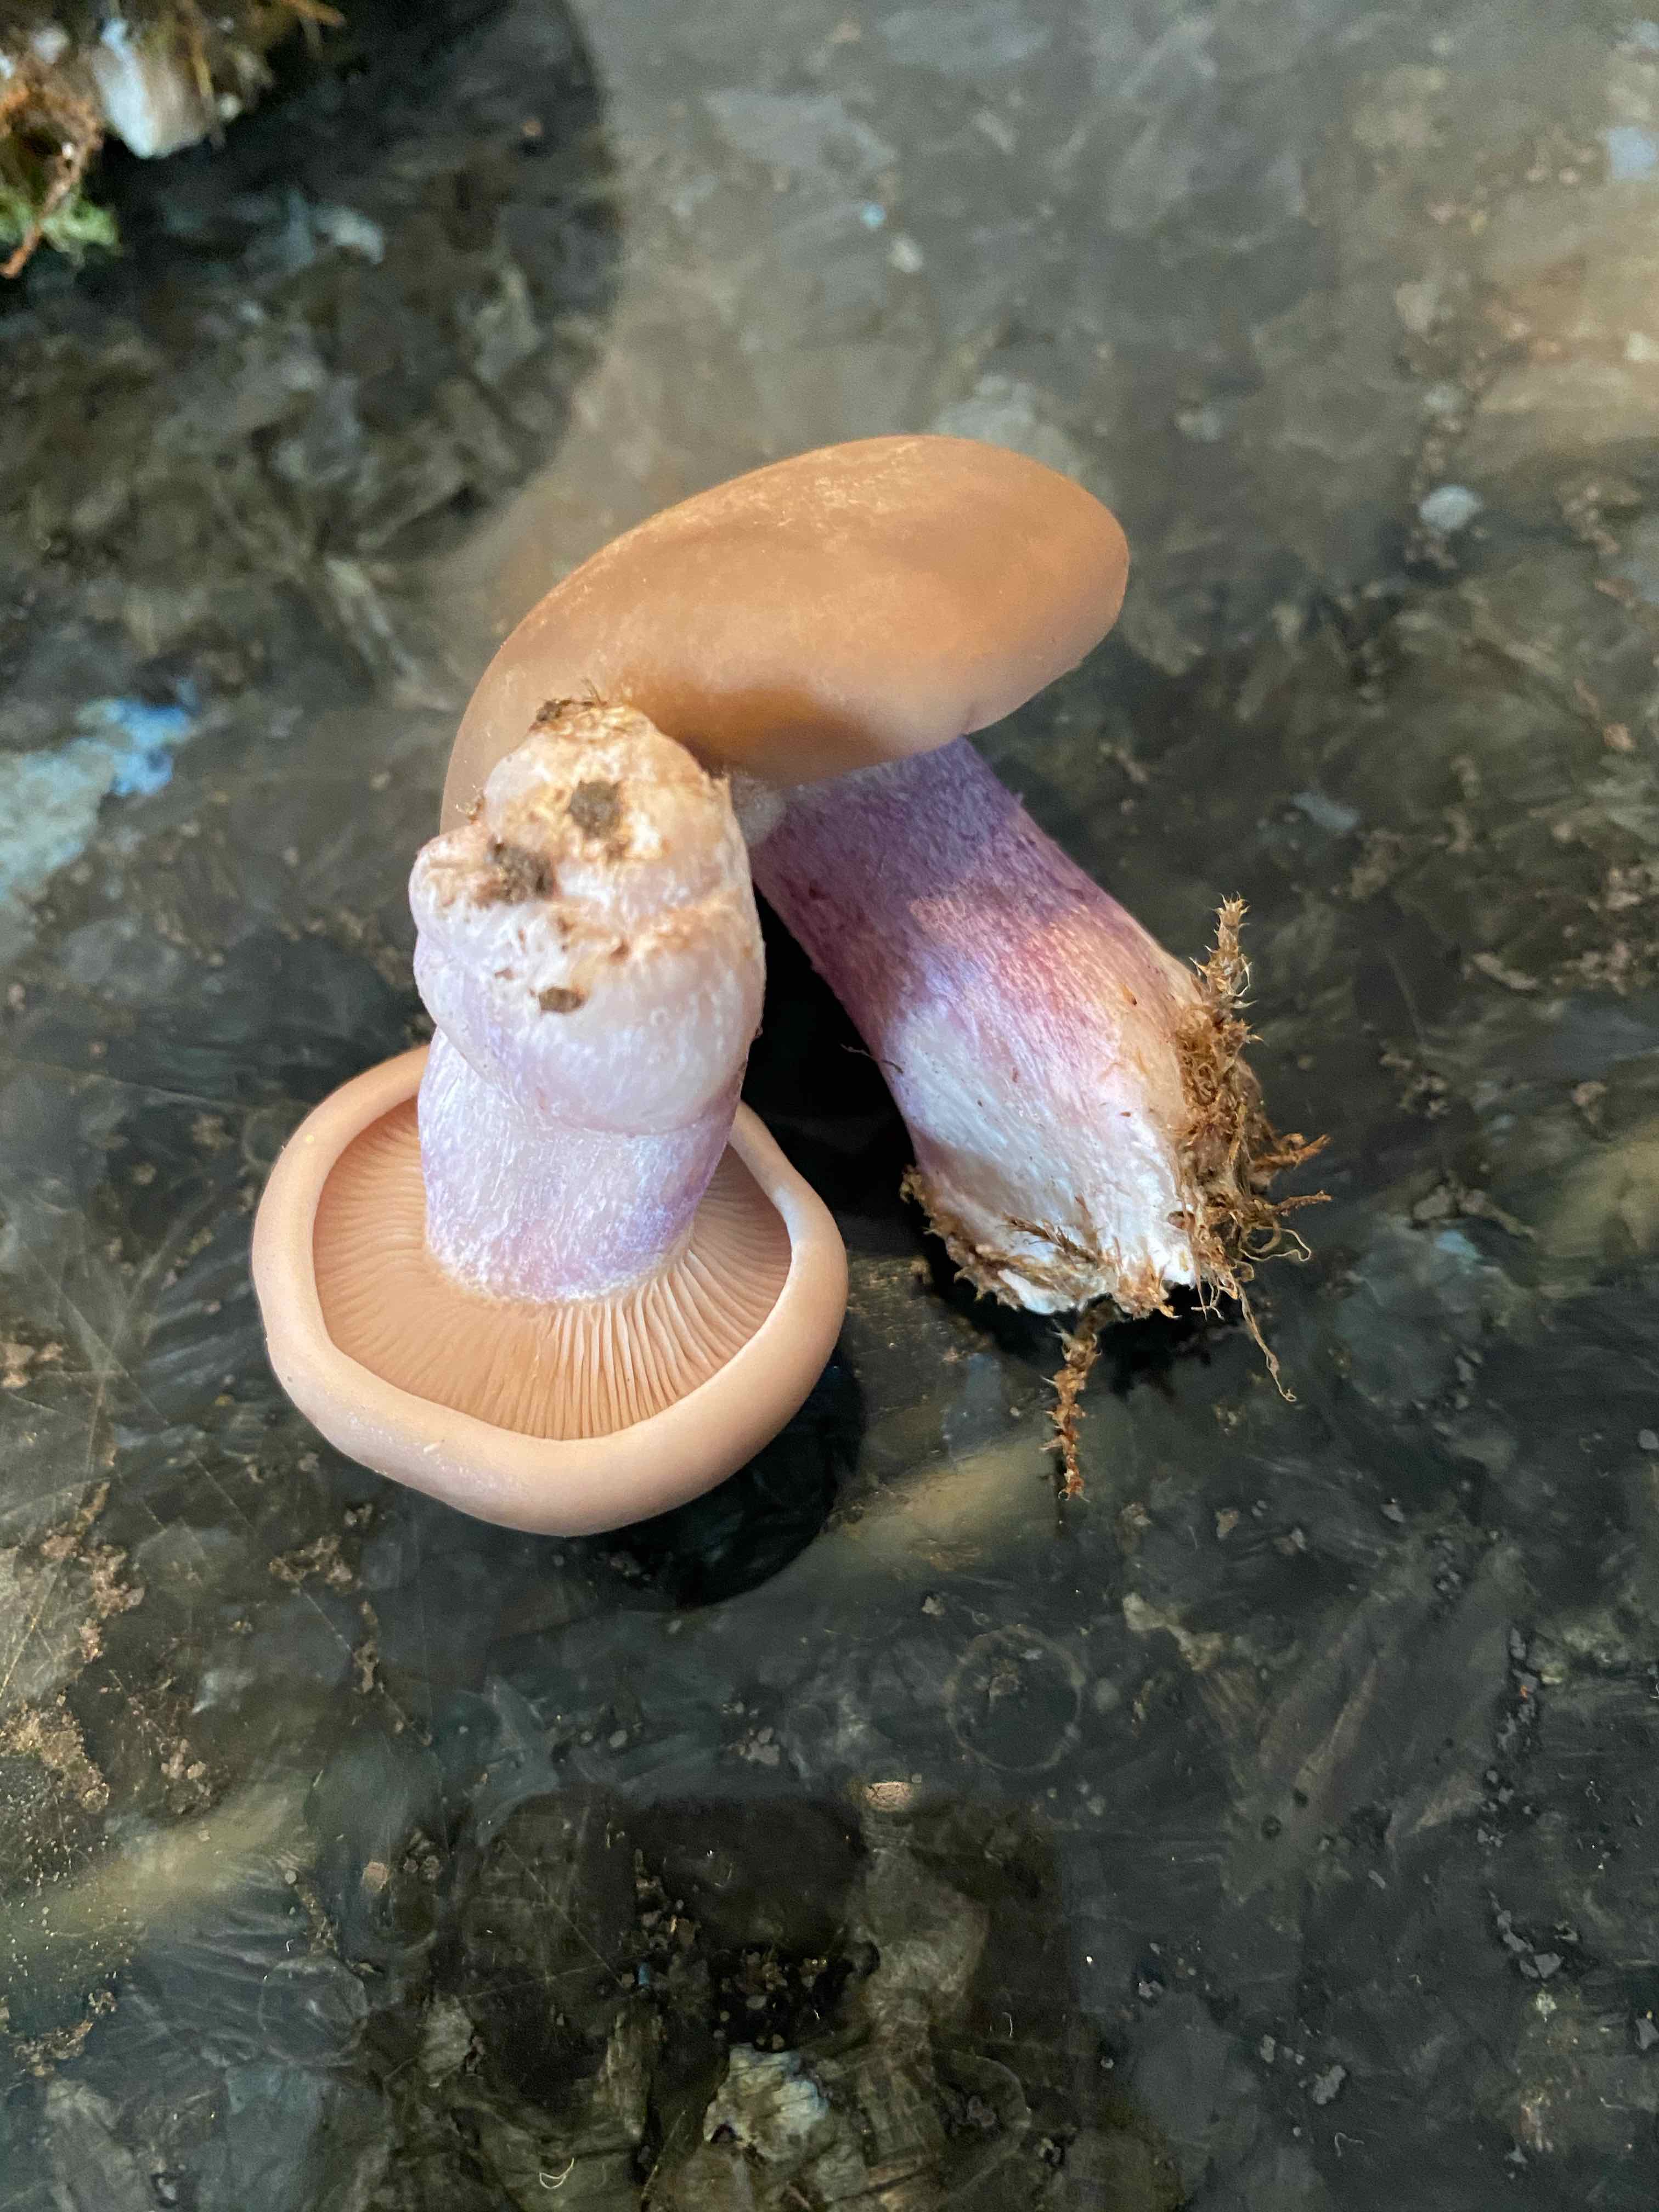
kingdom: Fungi
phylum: Basidiomycota
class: Agaricomycetes
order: Agaricales
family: Tricholomataceae
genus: Lepista
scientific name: Lepista personata
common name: bleg hekseringshat
